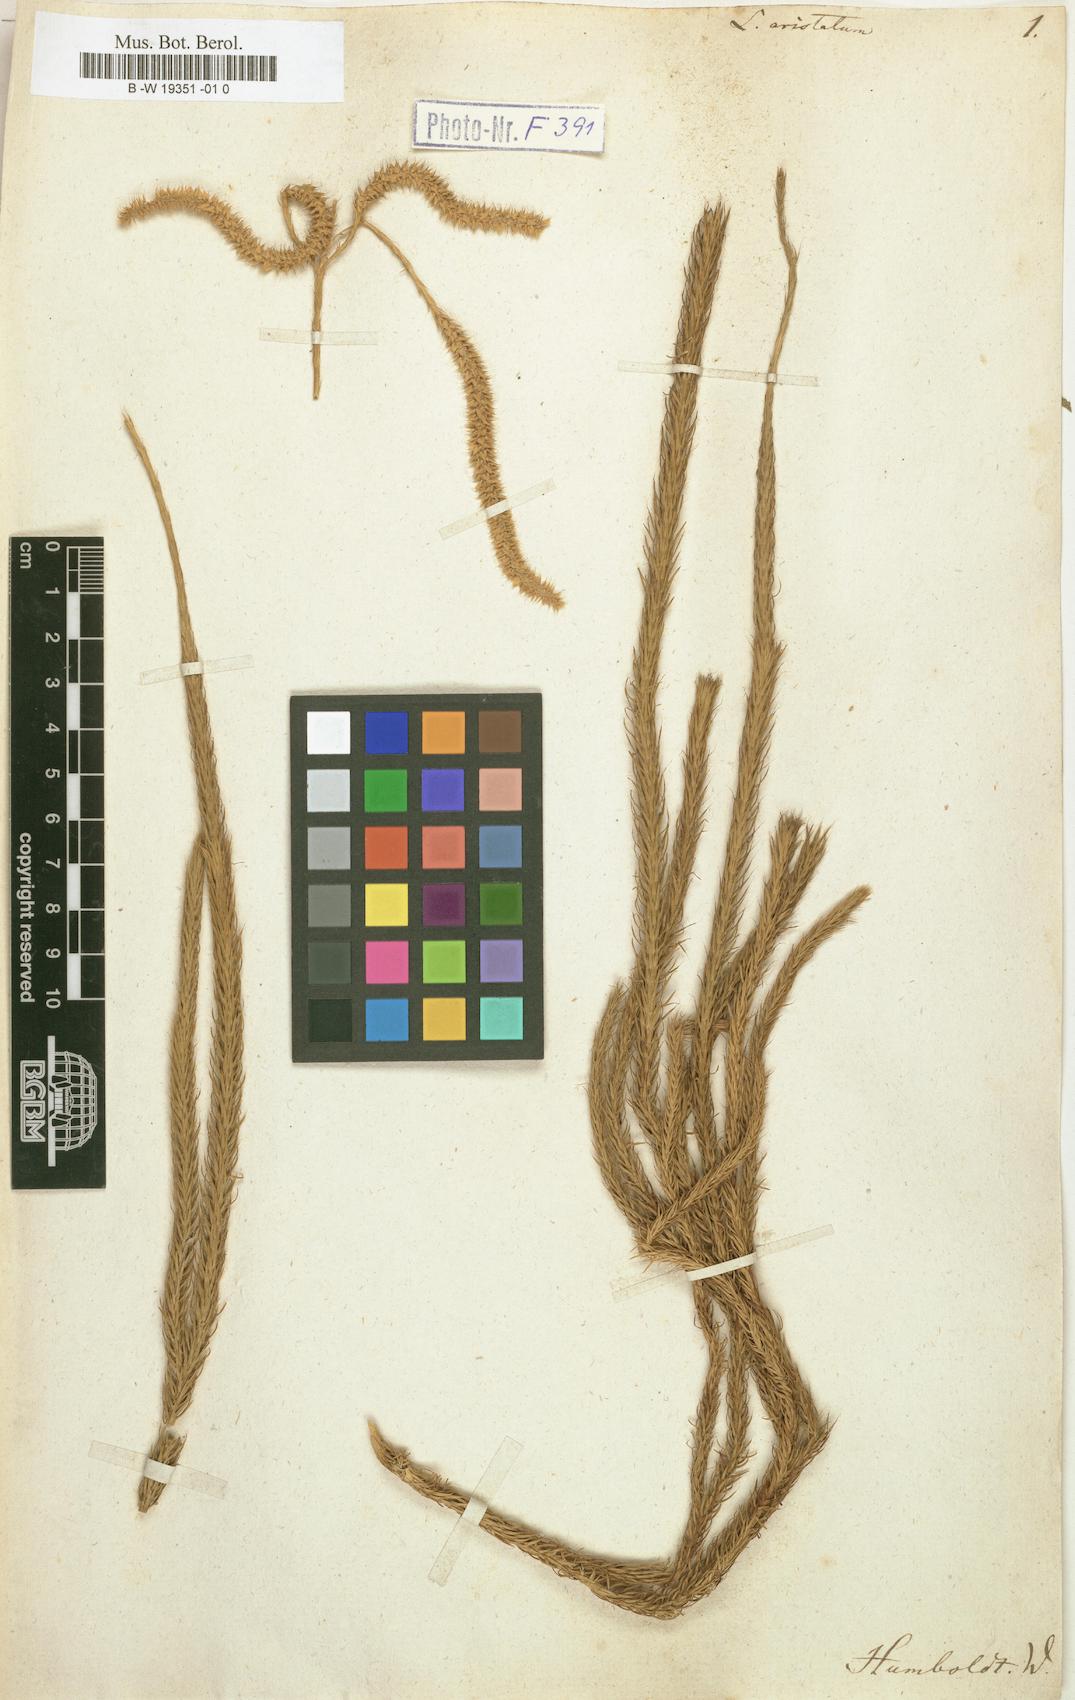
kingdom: Plantae
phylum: Tracheophyta
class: Lycopodiopsida
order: Lycopodiales
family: Lycopodiaceae
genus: Lycopodium
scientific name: Lycopodium clavatum
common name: Stag's-horn clubmoss
